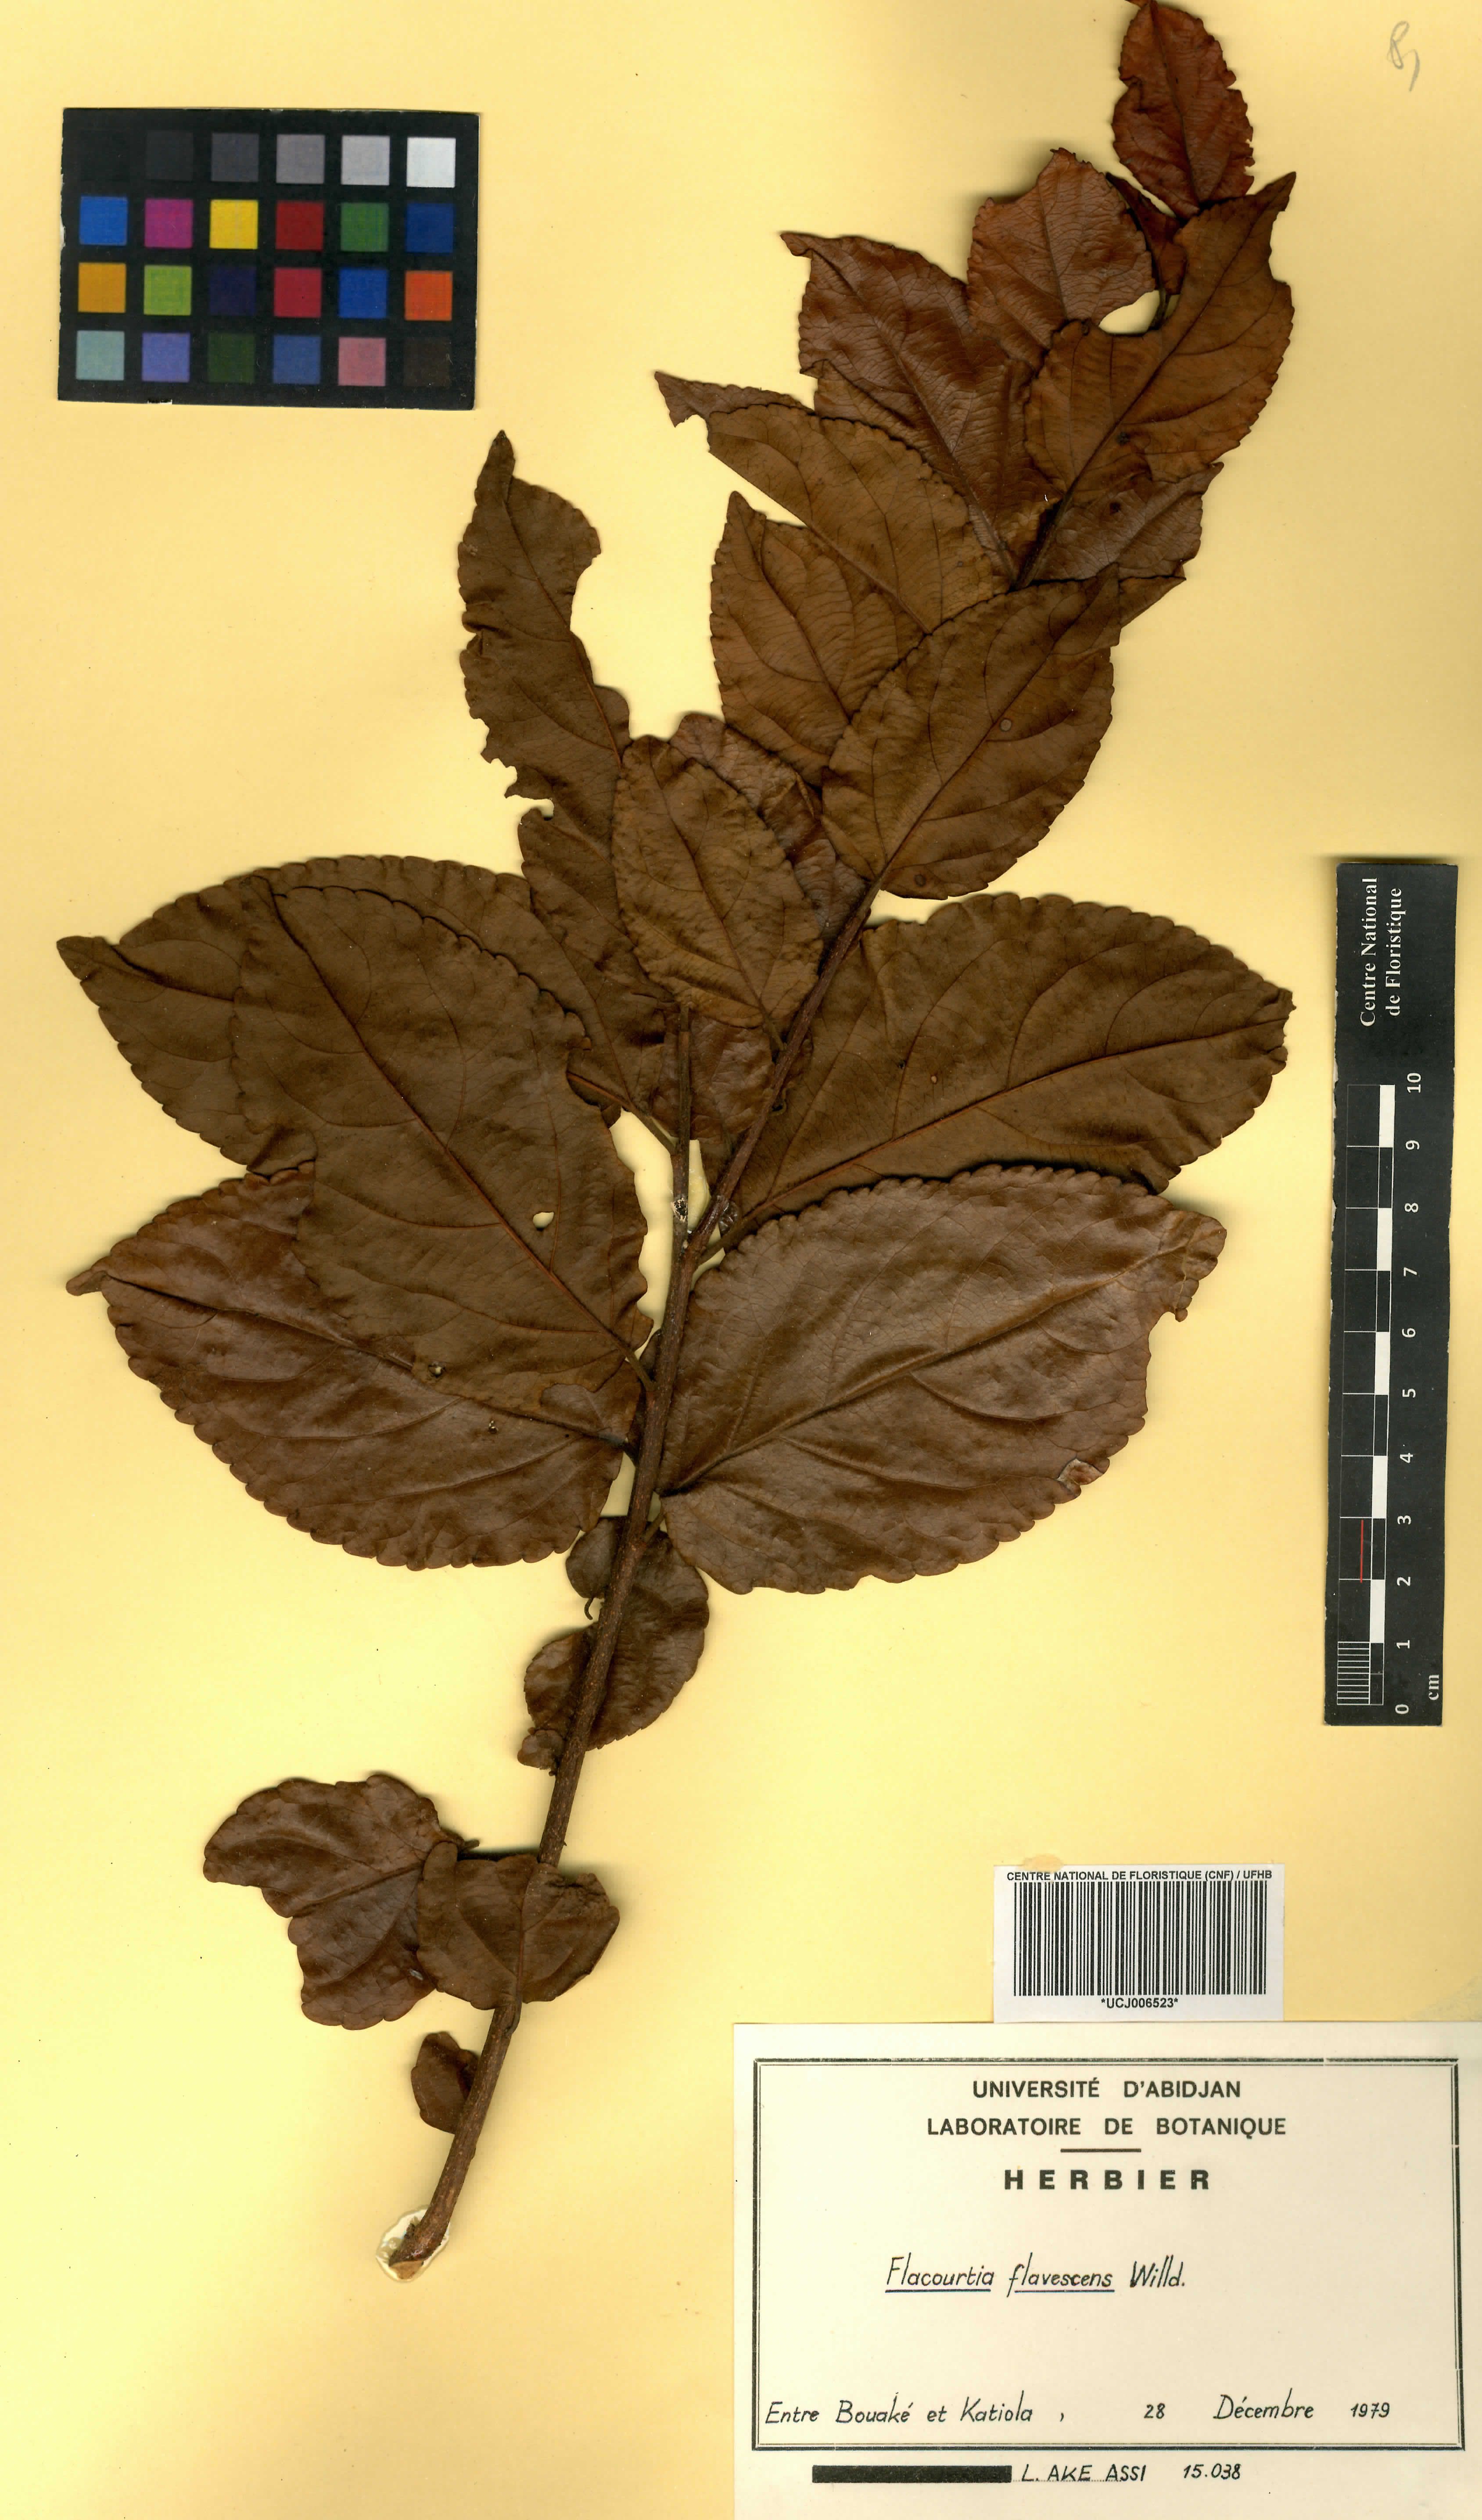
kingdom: Plantae
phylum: Tracheophyta
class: Magnoliopsida
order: Malpighiales
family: Salicaceae
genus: Flacourtia
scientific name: Flacourtia indica
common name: Governor's plum
